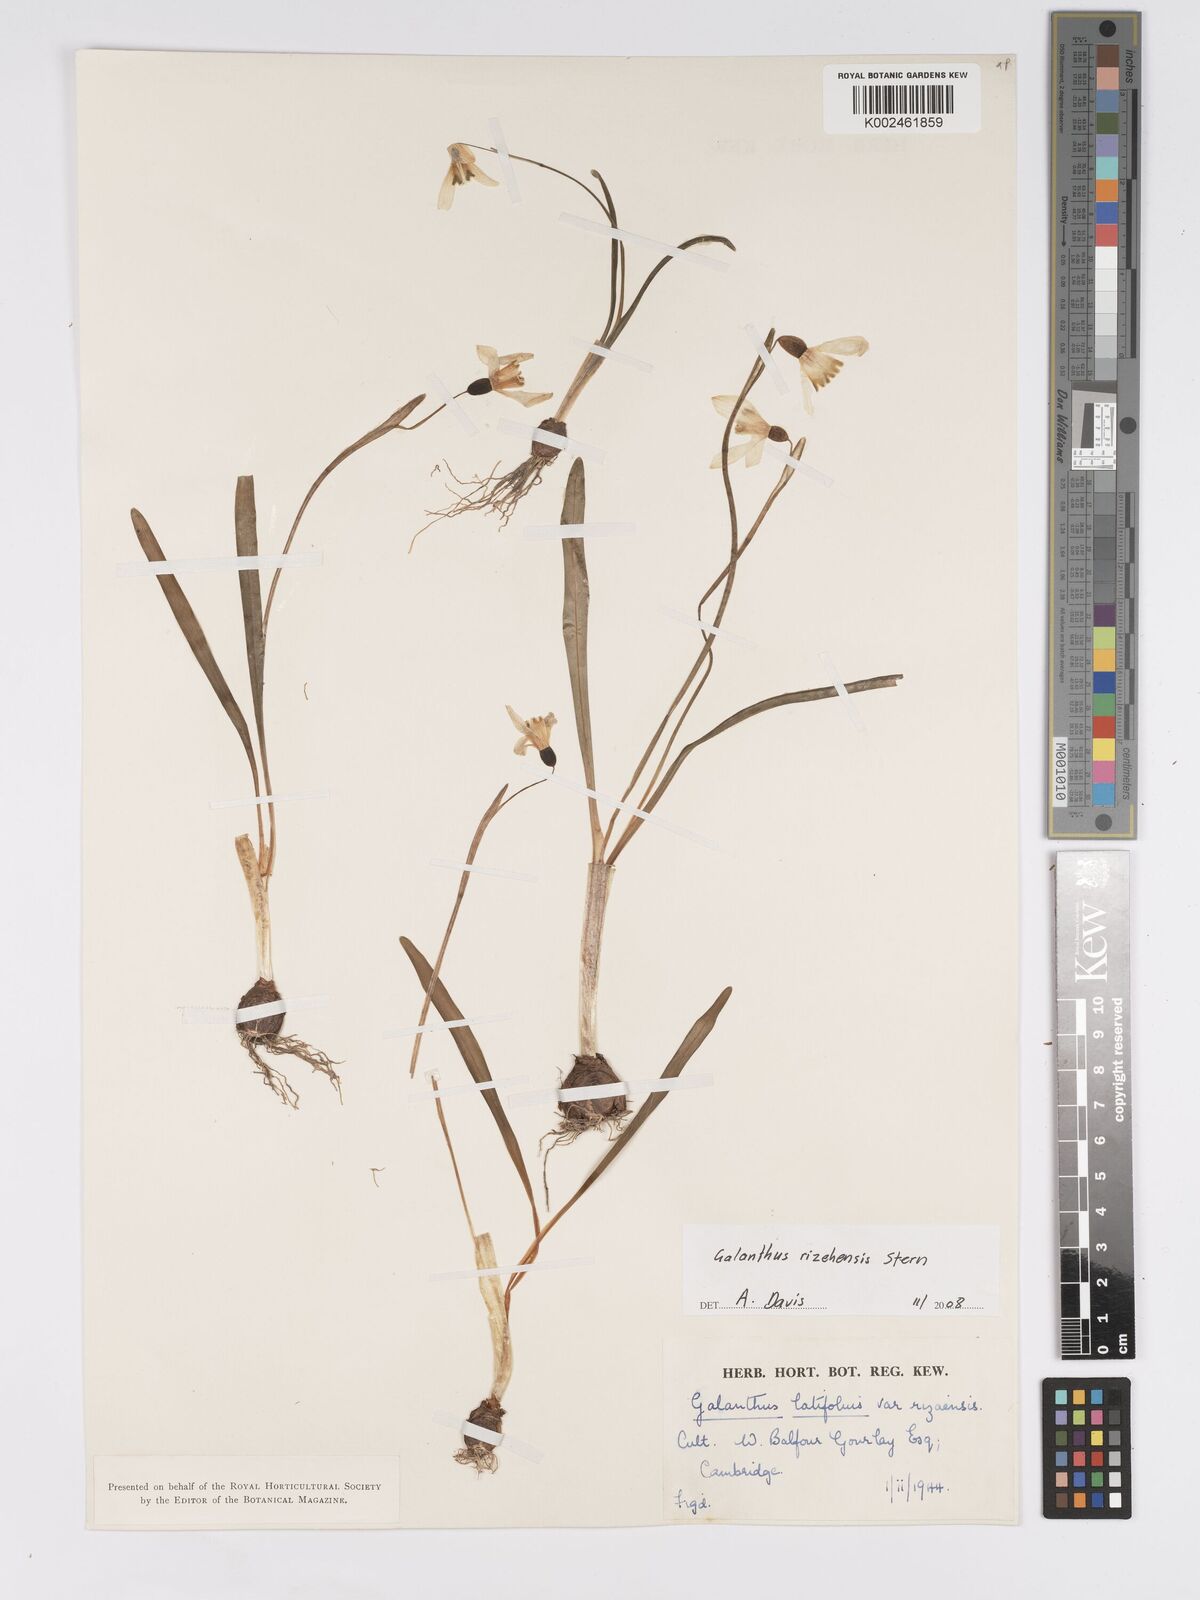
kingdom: Plantae
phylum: Tracheophyta
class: Liliopsida
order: Asparagales
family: Amaryllidaceae
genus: Galanthus
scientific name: Galanthus rizehensis
